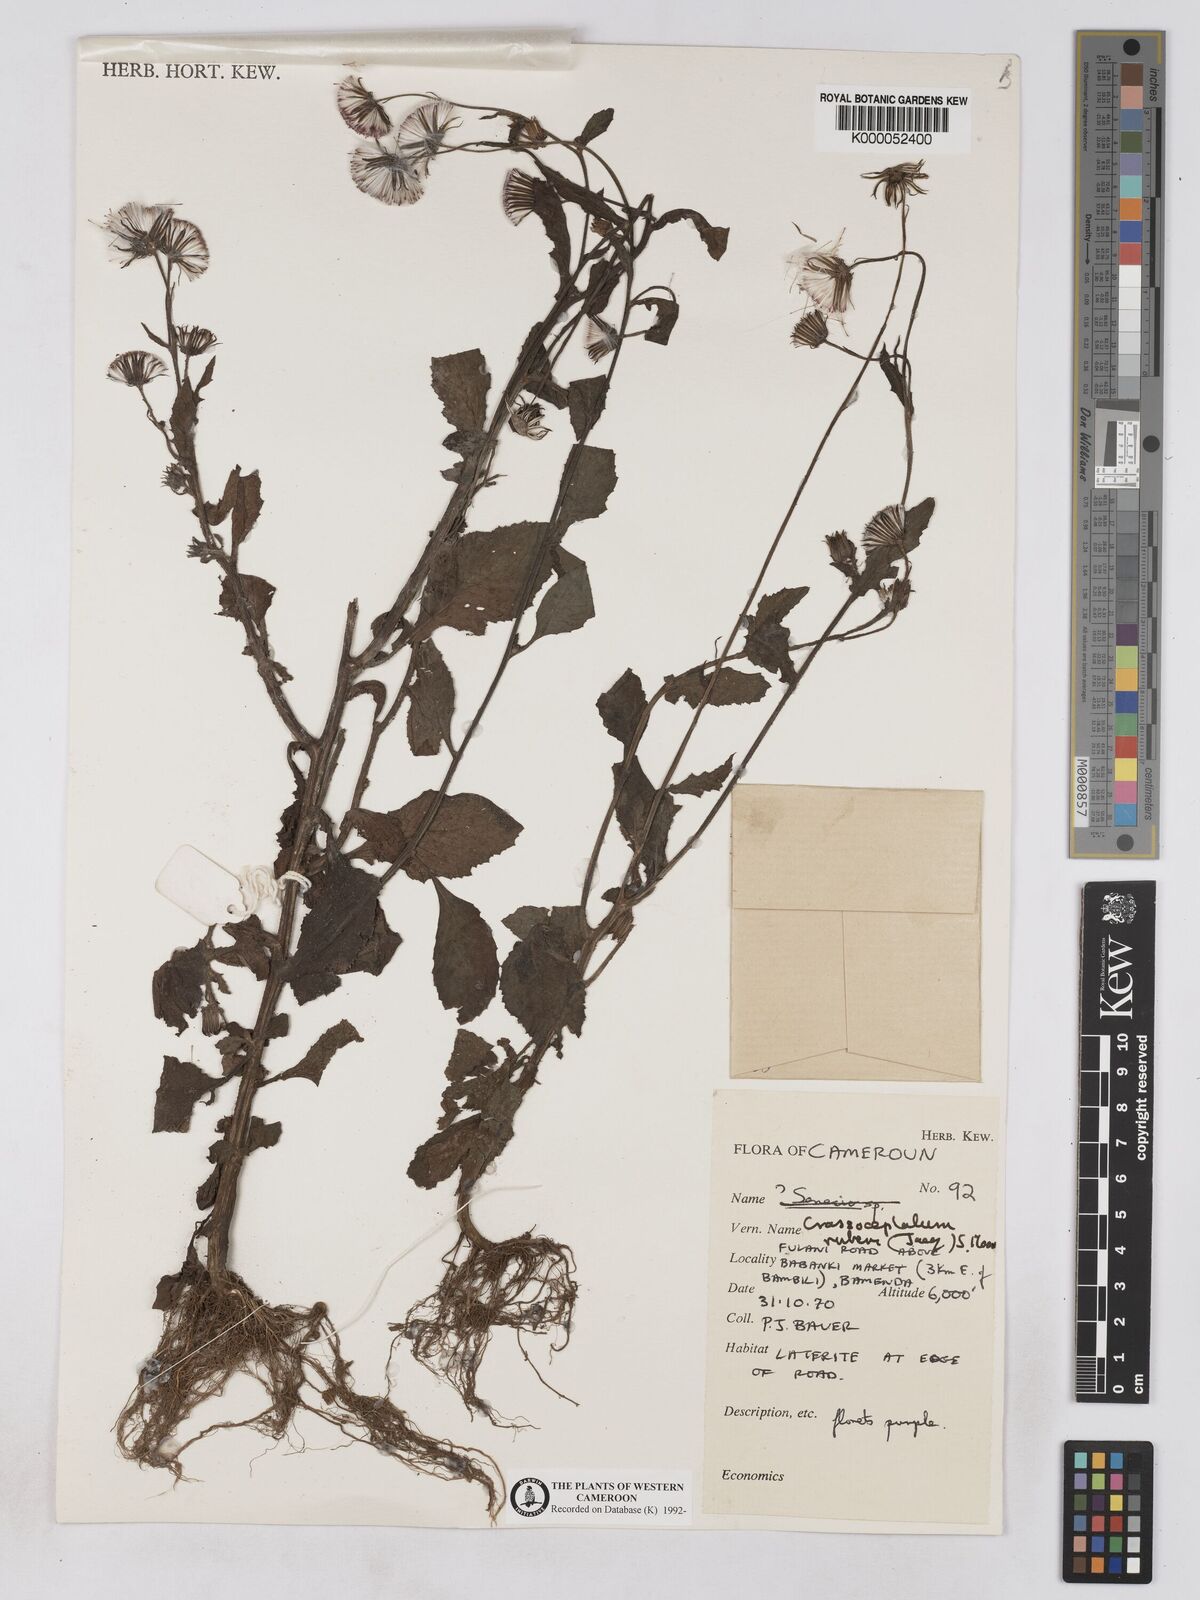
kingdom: Plantae
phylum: Tracheophyta
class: Magnoliopsida
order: Asterales
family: Asteraceae
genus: Crassocephalum
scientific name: Crassocephalum rubens
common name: Yoruban bologi
